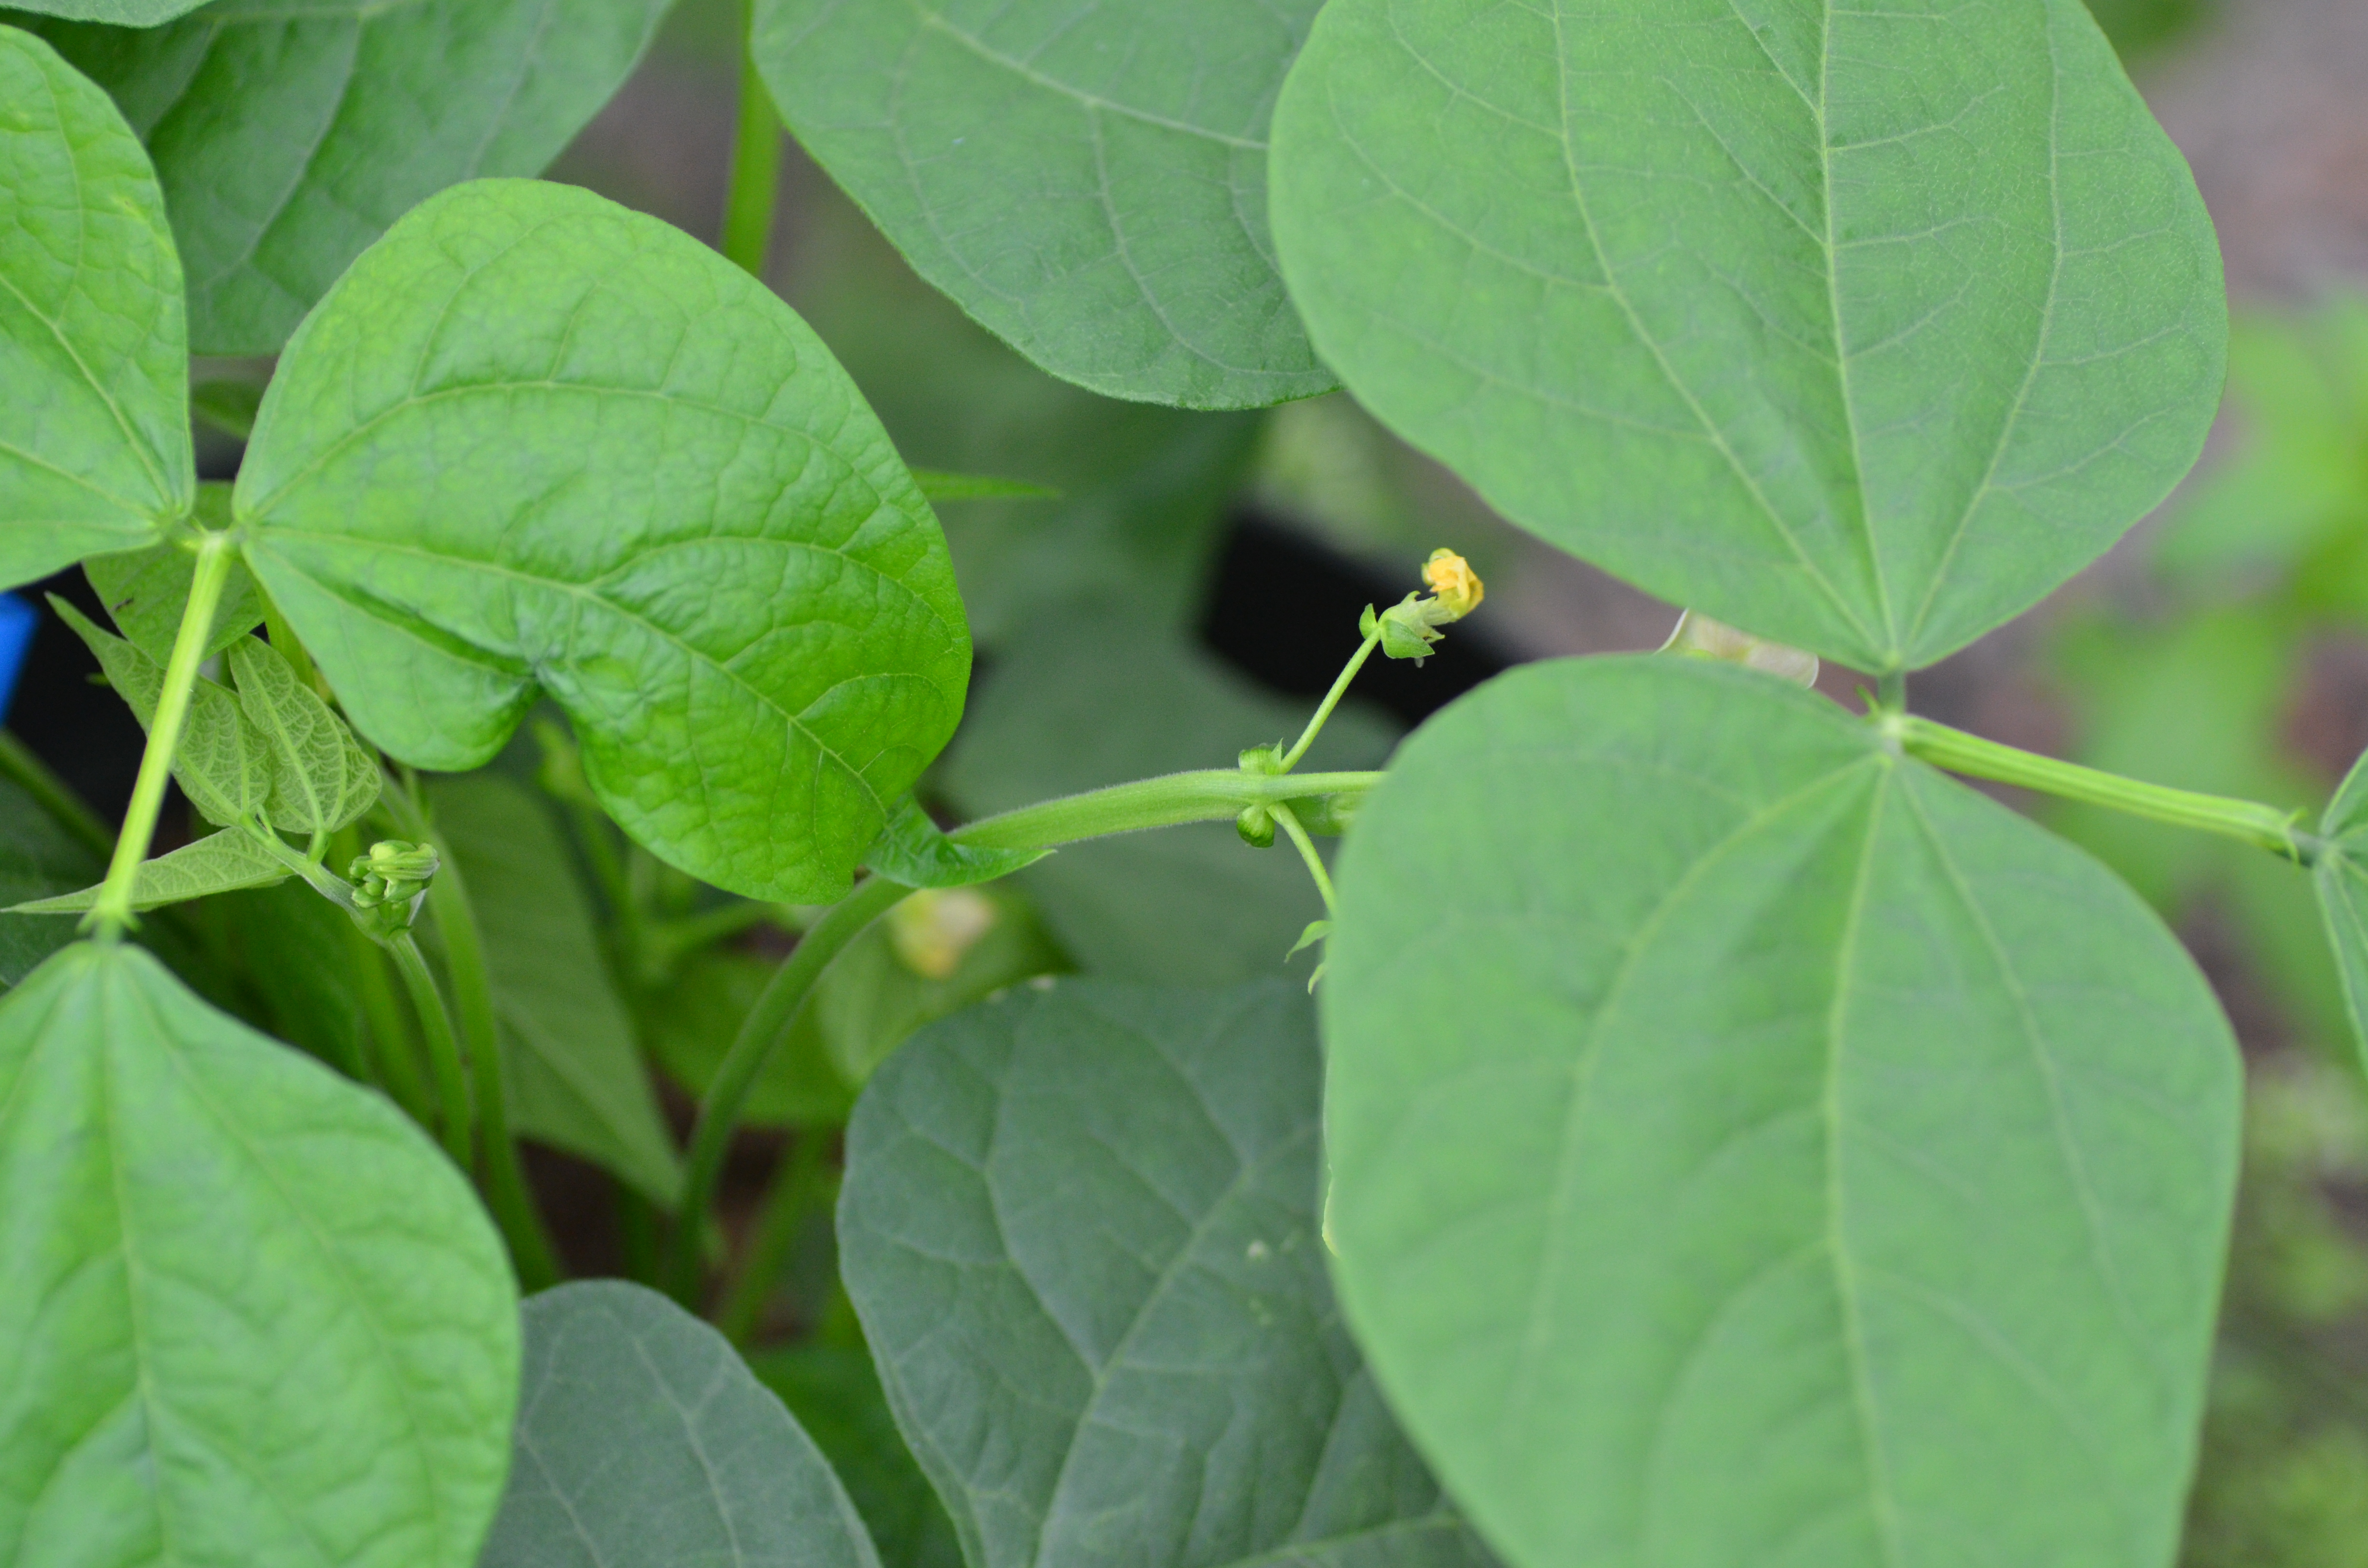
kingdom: Plantae
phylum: Tracheophyta
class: Magnoliopsida
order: Fabales
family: Fabaceae
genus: Phaseolus
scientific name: Phaseolus vulgaris
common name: Bean
